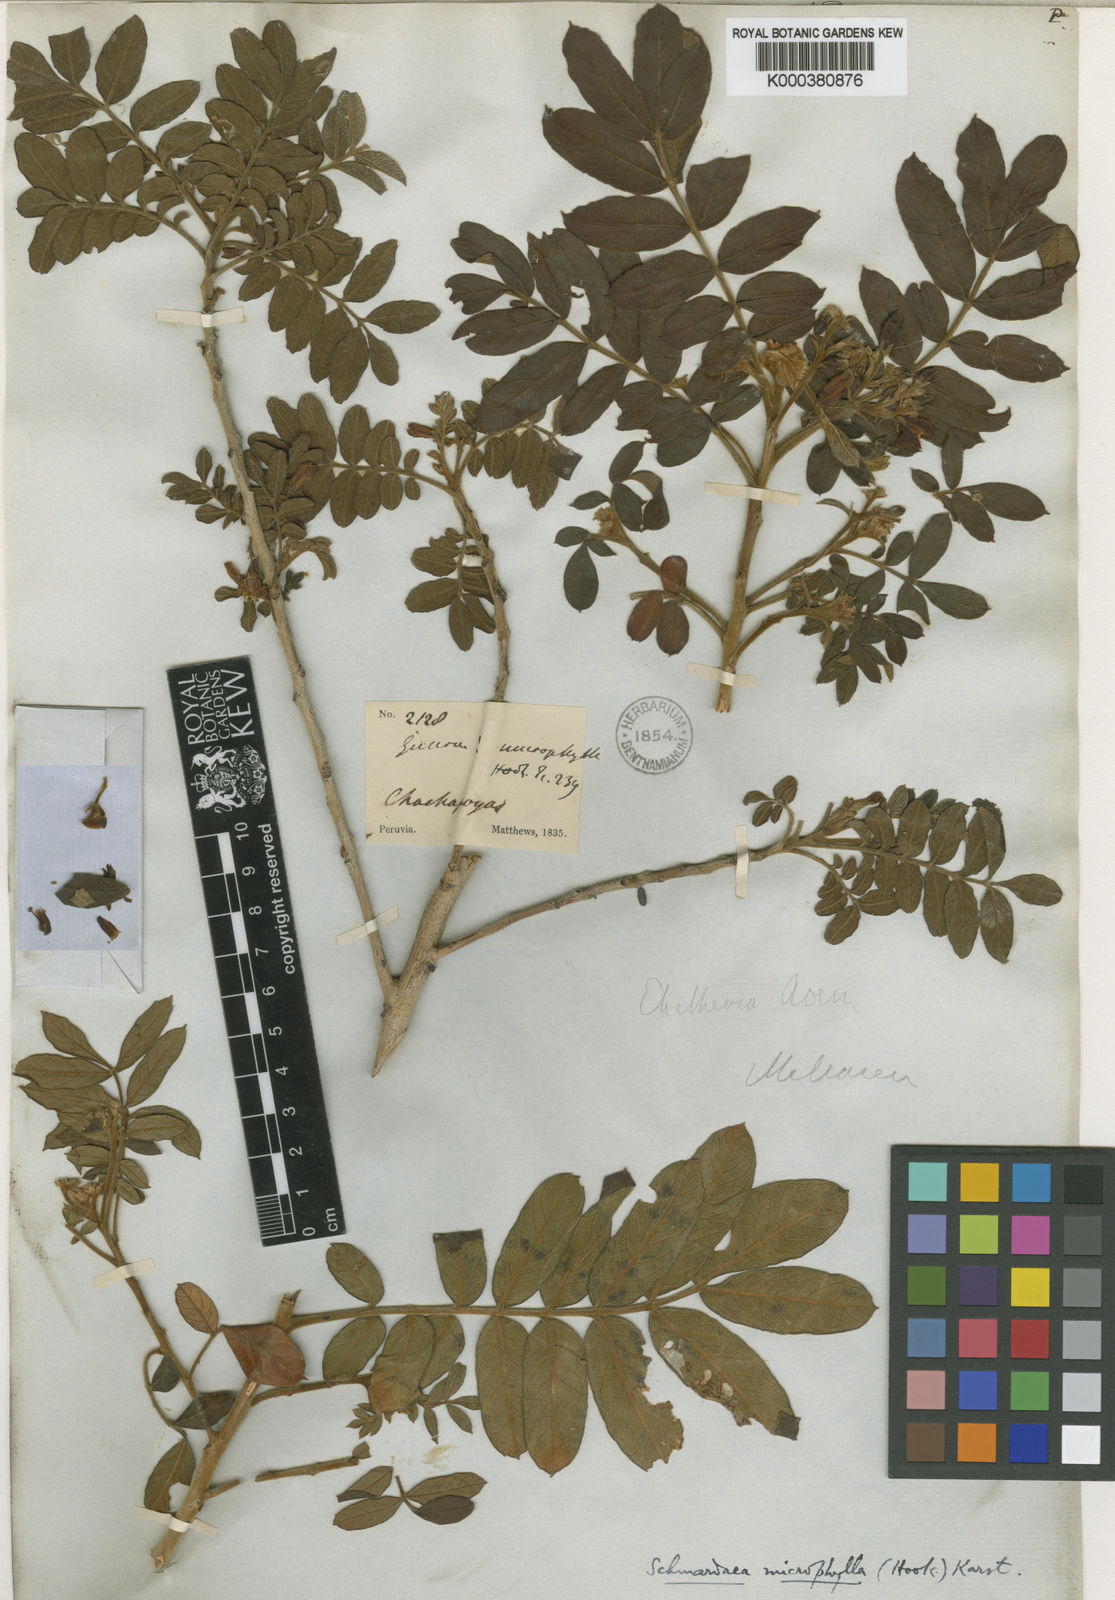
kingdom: Plantae
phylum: Tracheophyta
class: Magnoliopsida
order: Sapindales
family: Meliaceae
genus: Schmardaea
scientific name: Schmardaea
